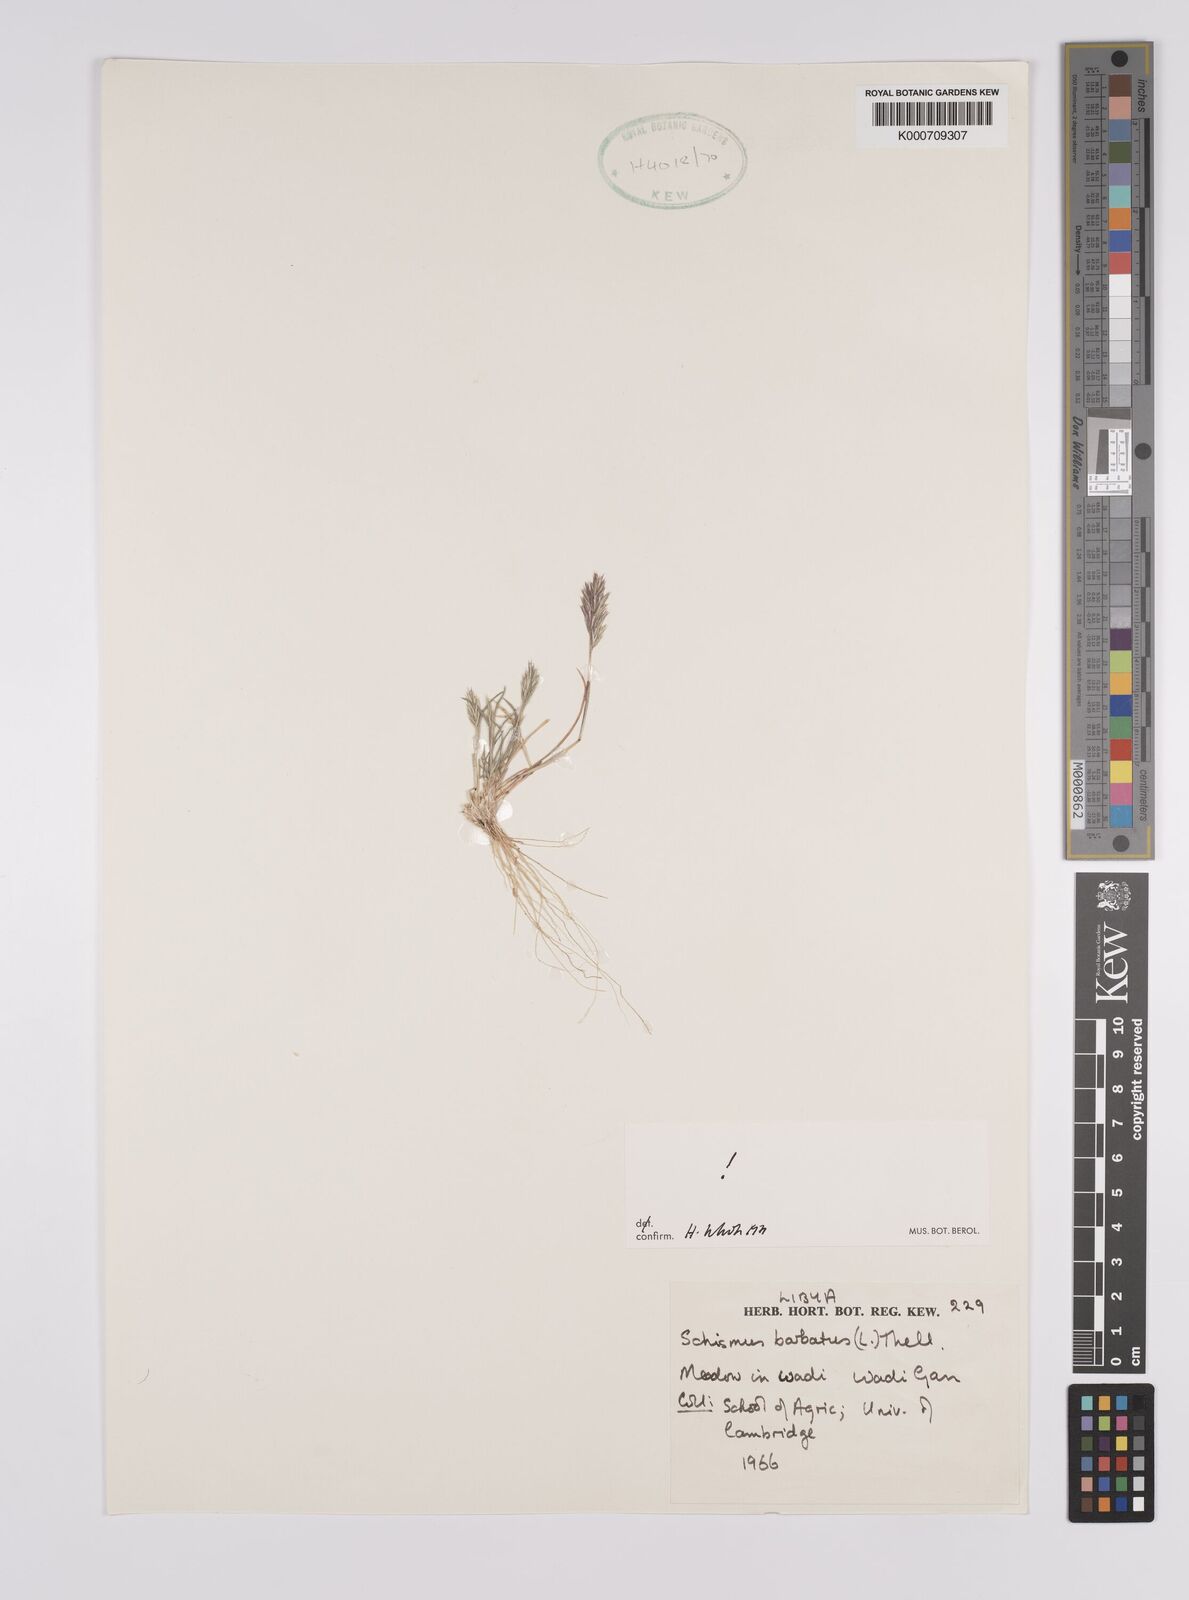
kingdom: Plantae
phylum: Tracheophyta
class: Liliopsida
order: Poales
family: Poaceae
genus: Schismus
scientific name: Schismus barbatus
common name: Kelch-grass
